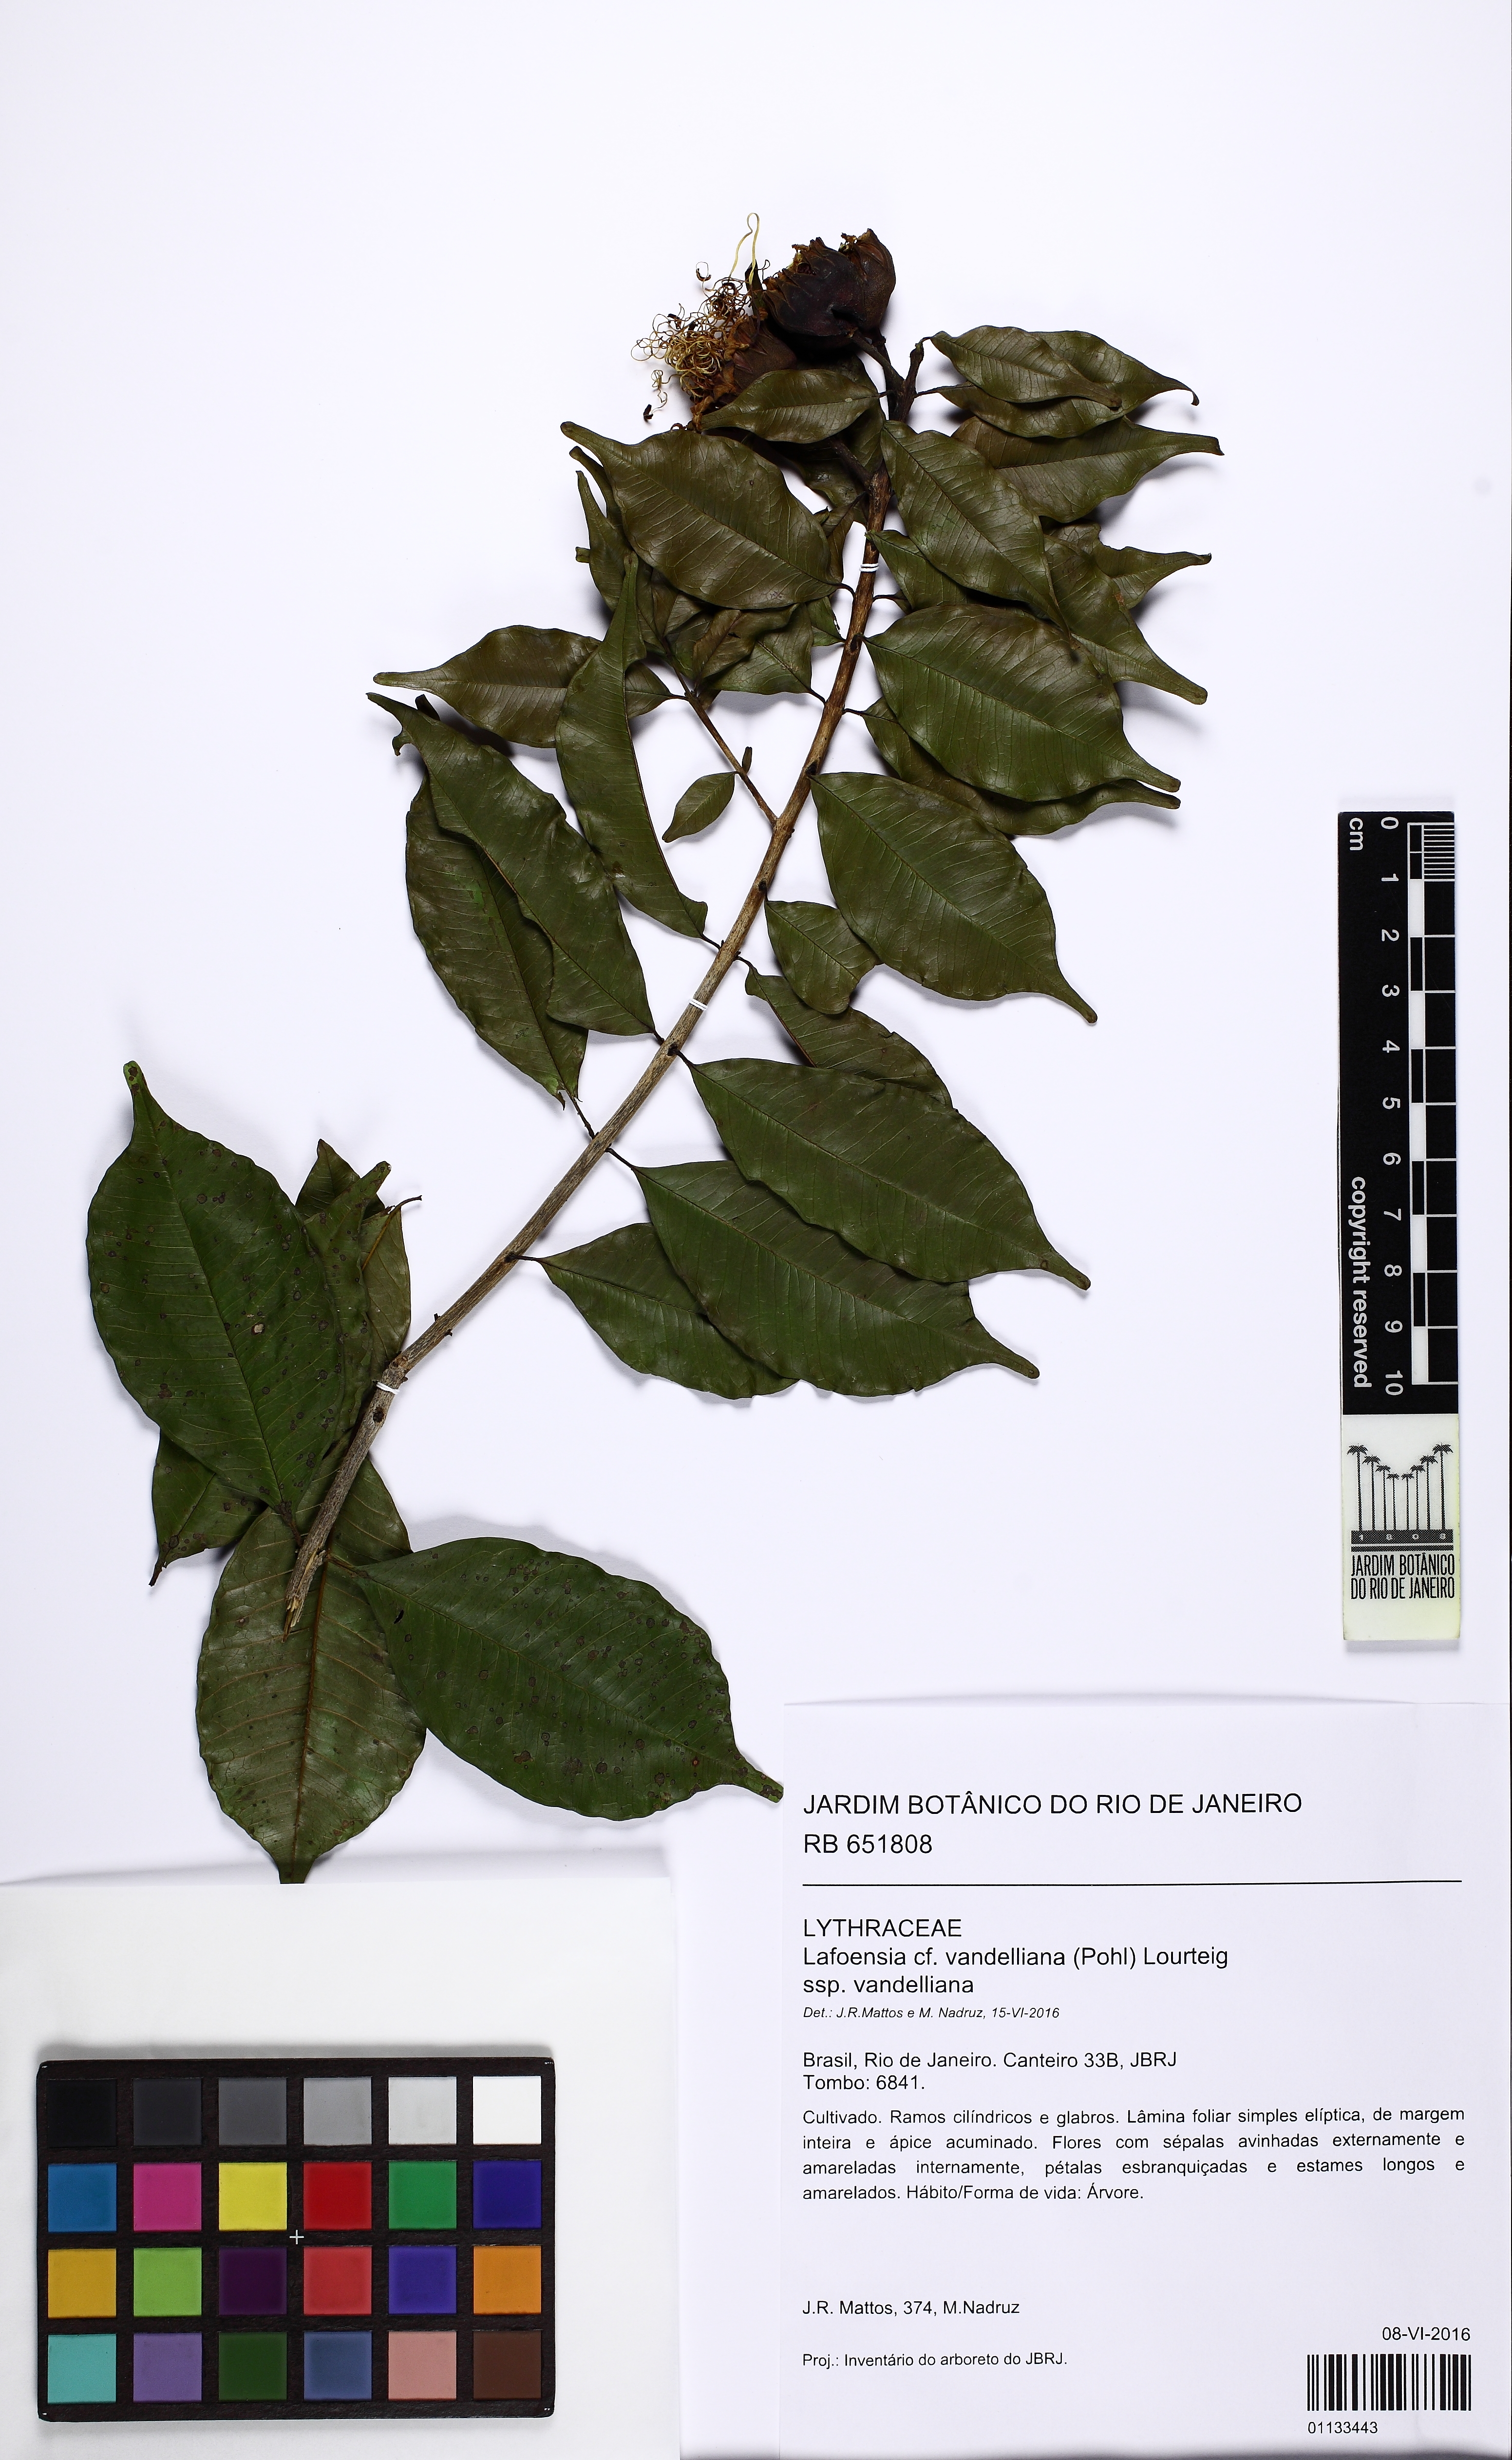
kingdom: Plantae
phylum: Tracheophyta
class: Magnoliopsida
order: Myrtales
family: Lythraceae
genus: Lafoensia
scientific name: Lafoensia vandelliana
